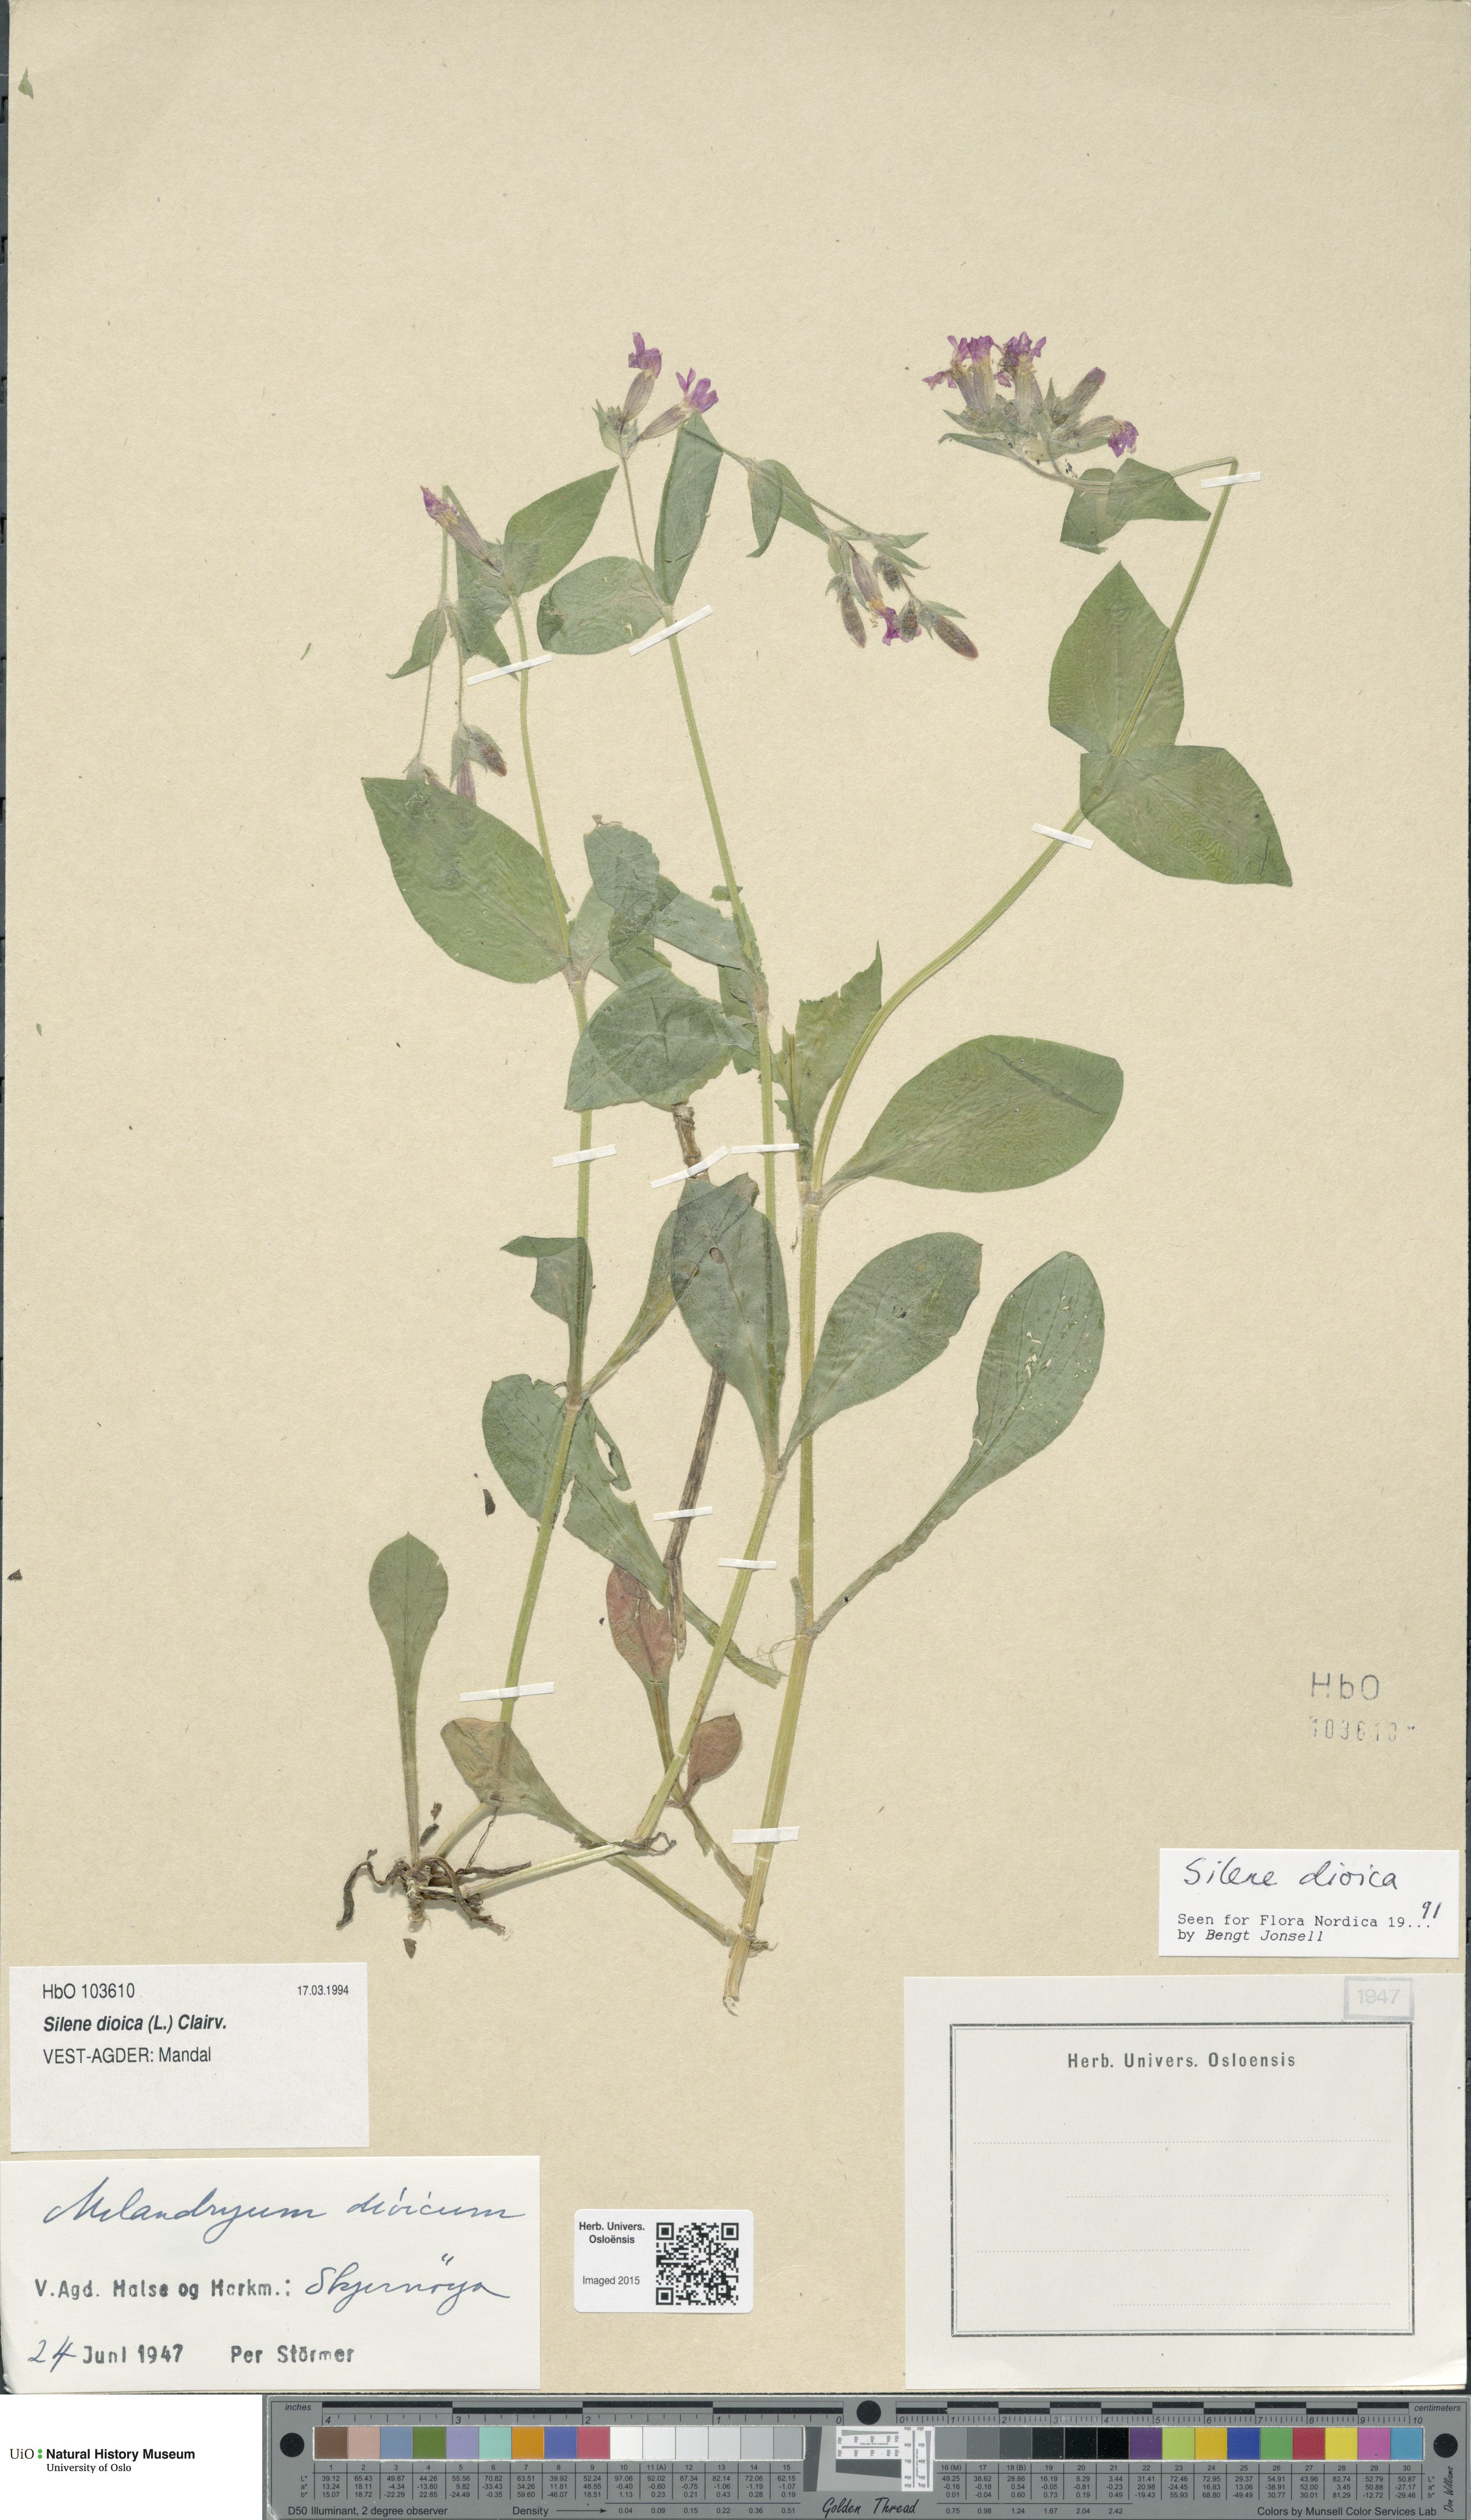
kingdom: Plantae
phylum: Tracheophyta
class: Magnoliopsida
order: Caryophyllales
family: Caryophyllaceae
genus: Silene
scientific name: Silene dioica
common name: Red campion
